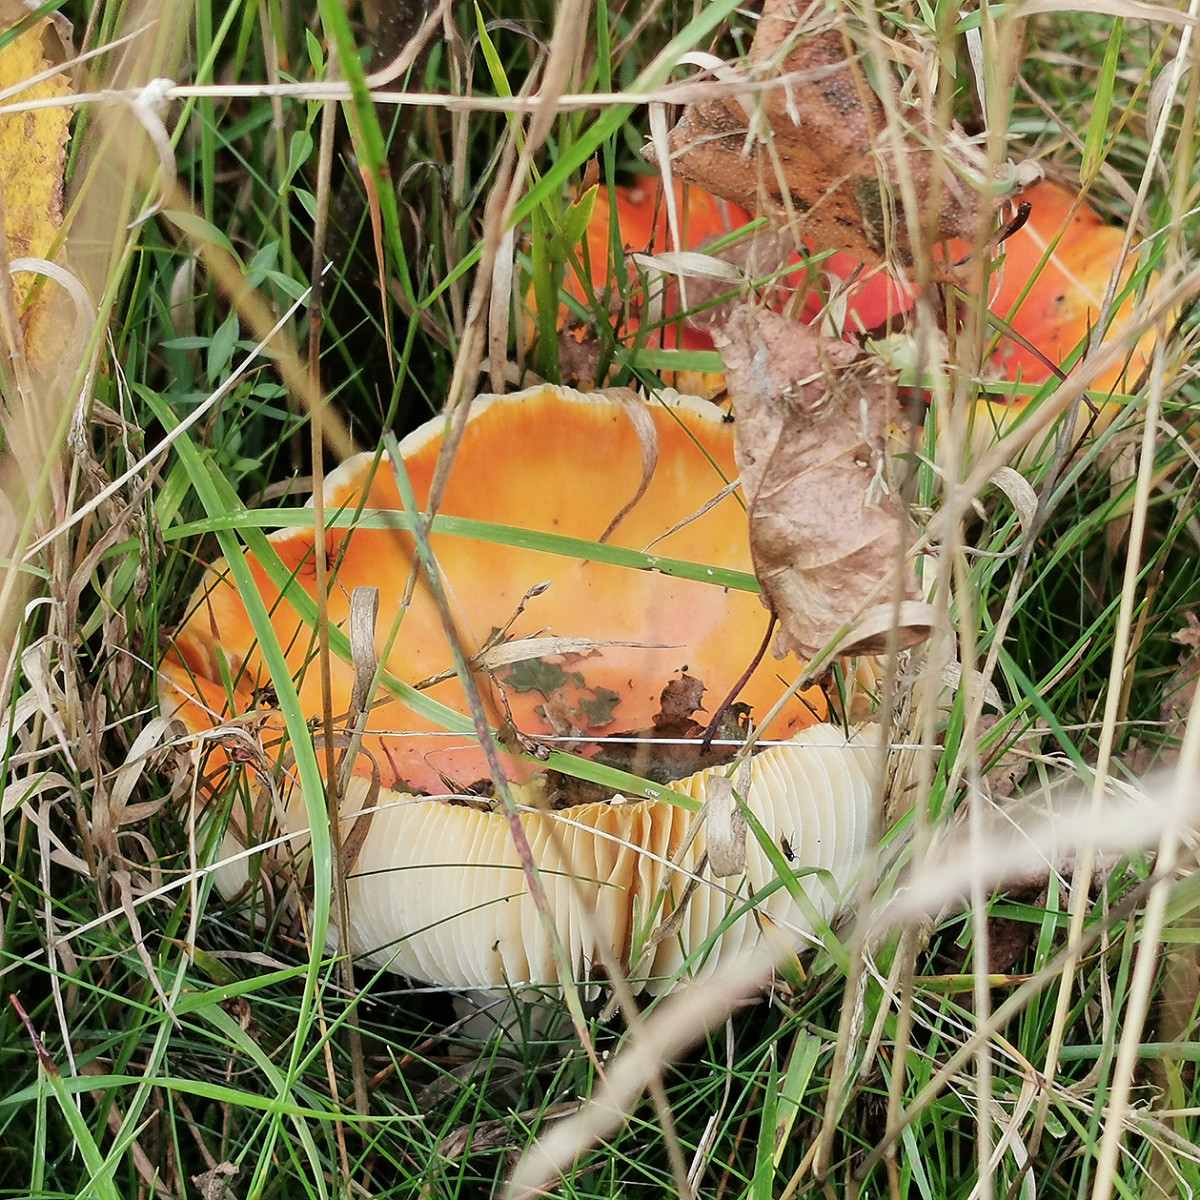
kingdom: Fungi
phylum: Basidiomycota
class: Agaricomycetes
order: Agaricales
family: Amanitaceae
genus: Amanita
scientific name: Amanita muscaria
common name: rød fluesvamp
